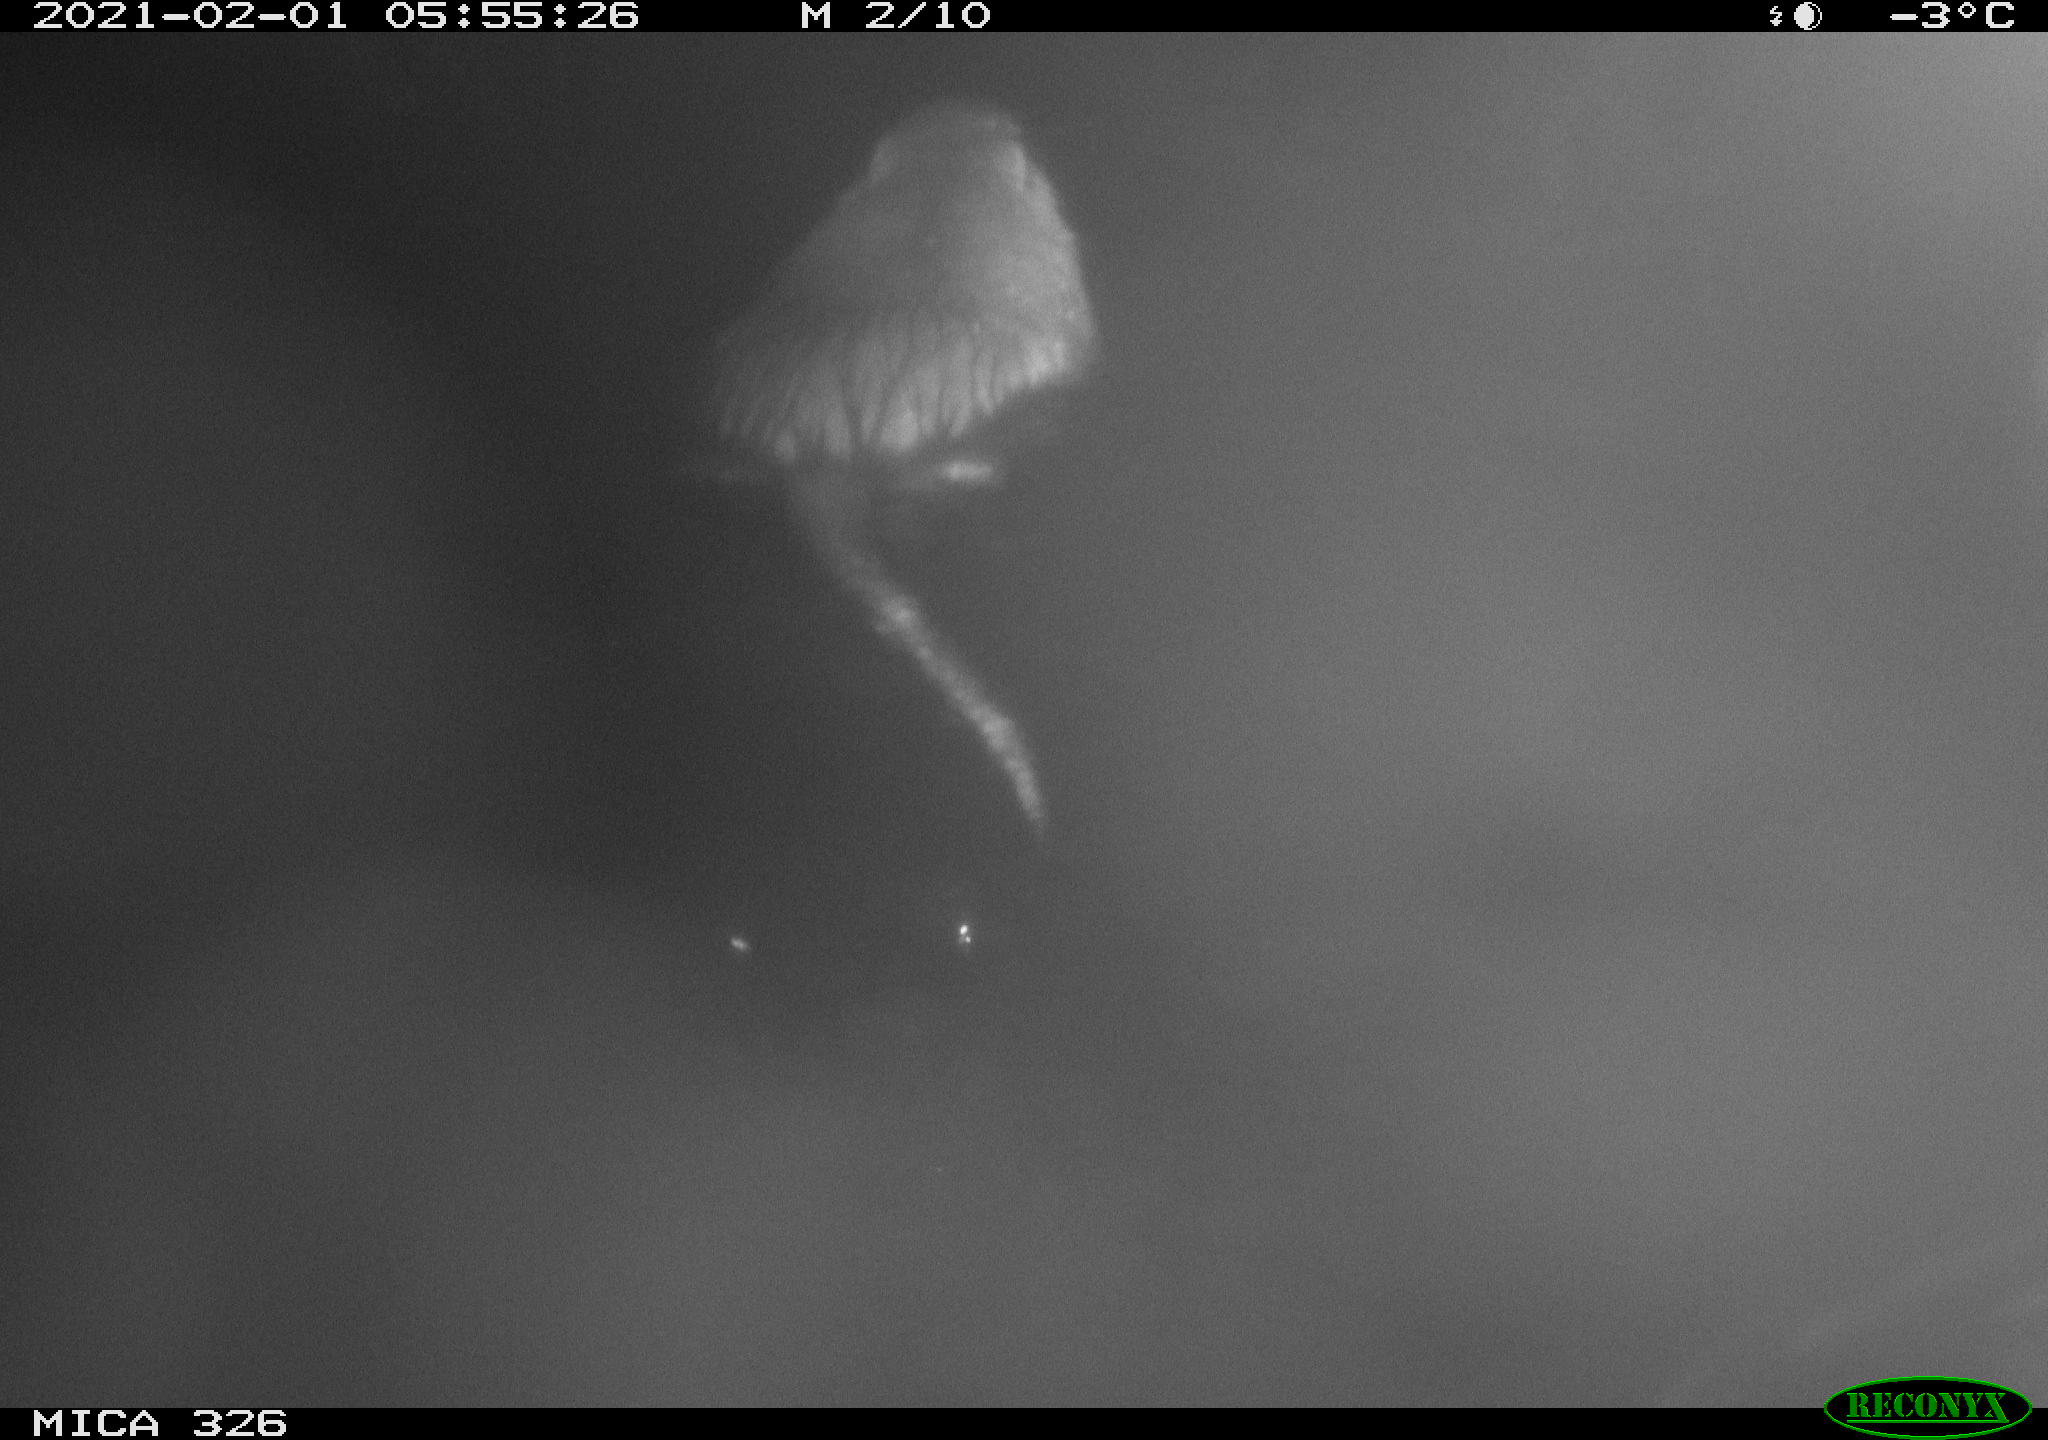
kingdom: Animalia
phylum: Chordata
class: Mammalia
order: Rodentia
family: Myocastoridae
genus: Myocastor
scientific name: Myocastor coypus
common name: Coypu
